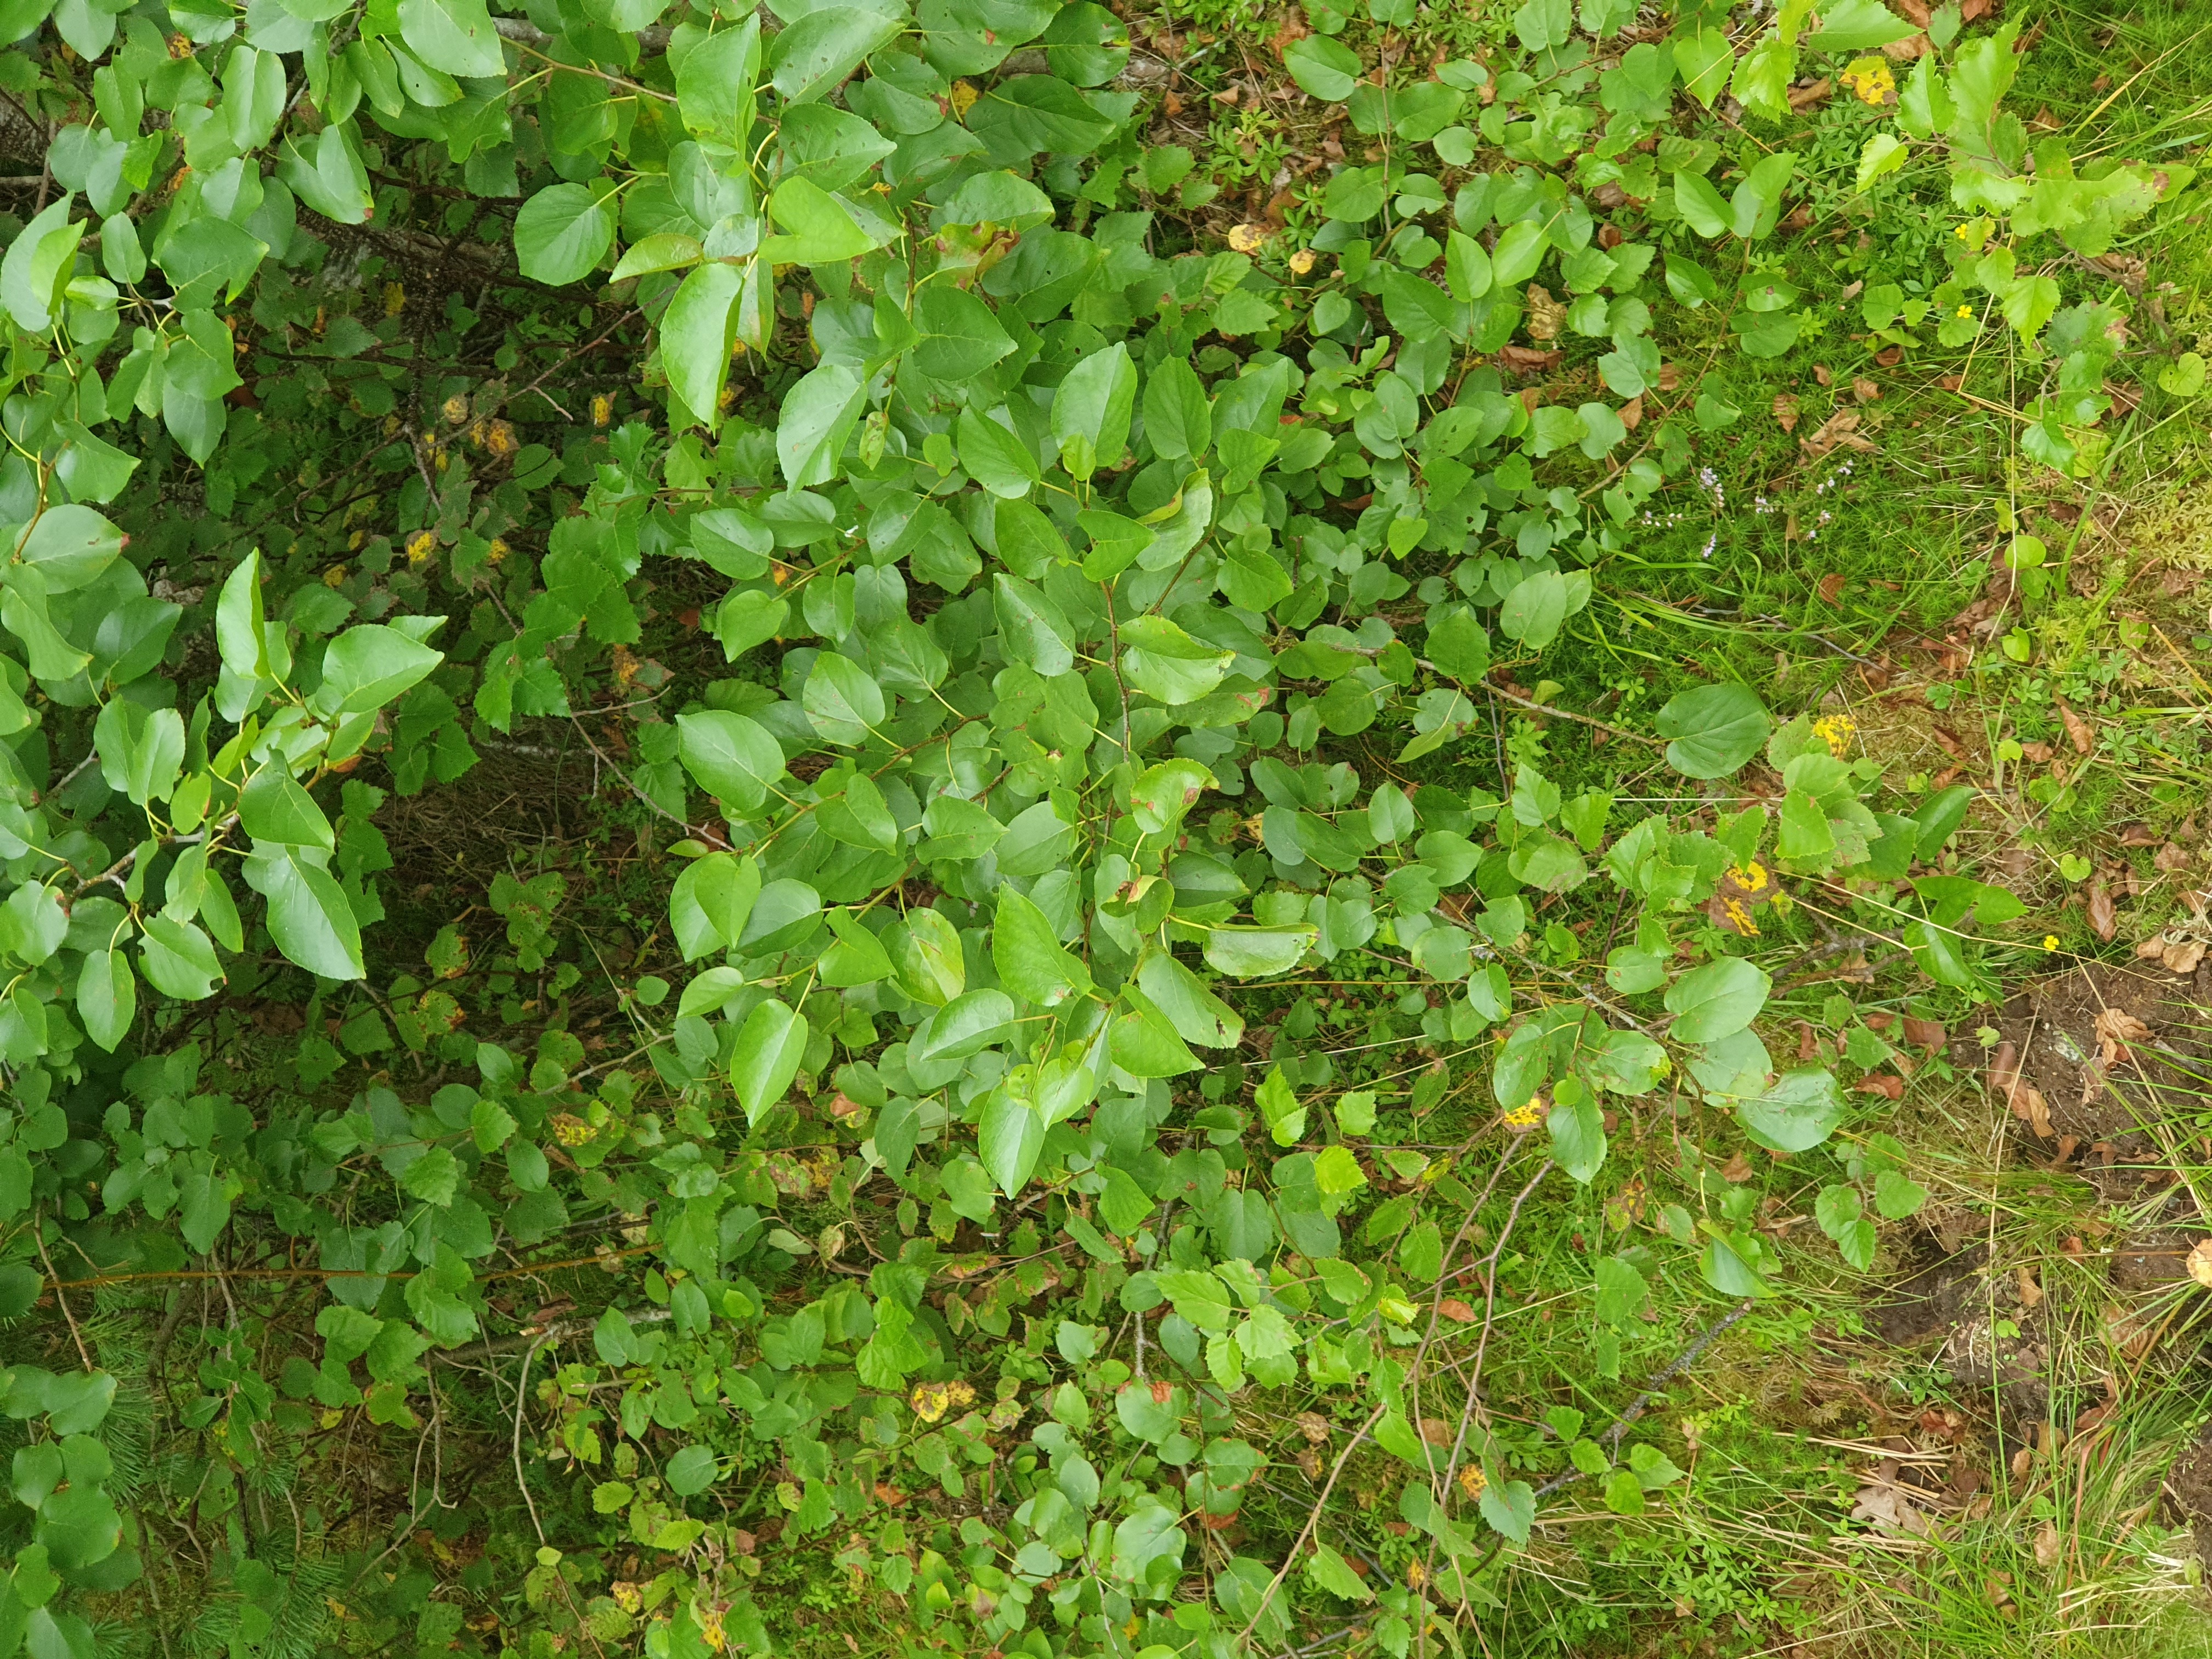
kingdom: Plantae
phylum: Tracheophyta
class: Magnoliopsida
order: Fagales
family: Betulaceae
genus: Alnus
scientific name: Alnus cordata
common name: Italian alder
